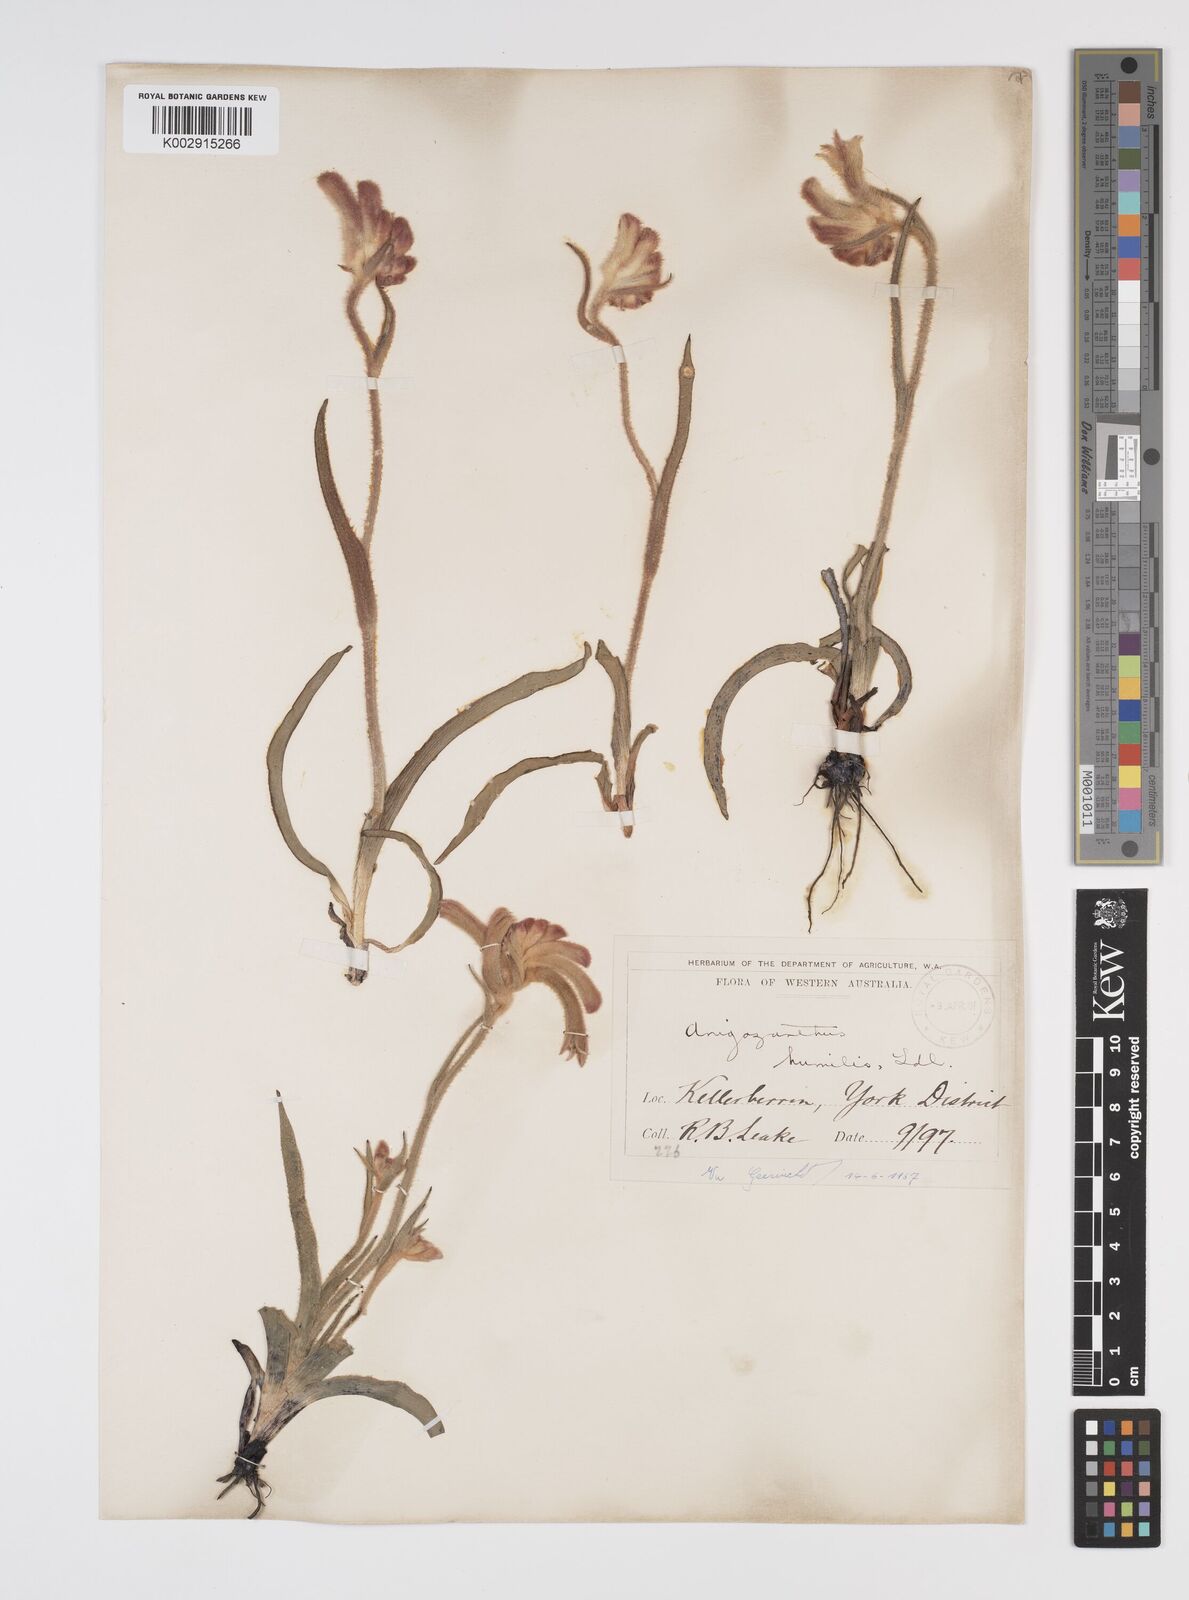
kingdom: Plantae
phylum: Tracheophyta
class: Liliopsida
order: Commelinales
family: Haemodoraceae
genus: Anigozanthos
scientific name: Anigozanthos humilis
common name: Cat's-paw
